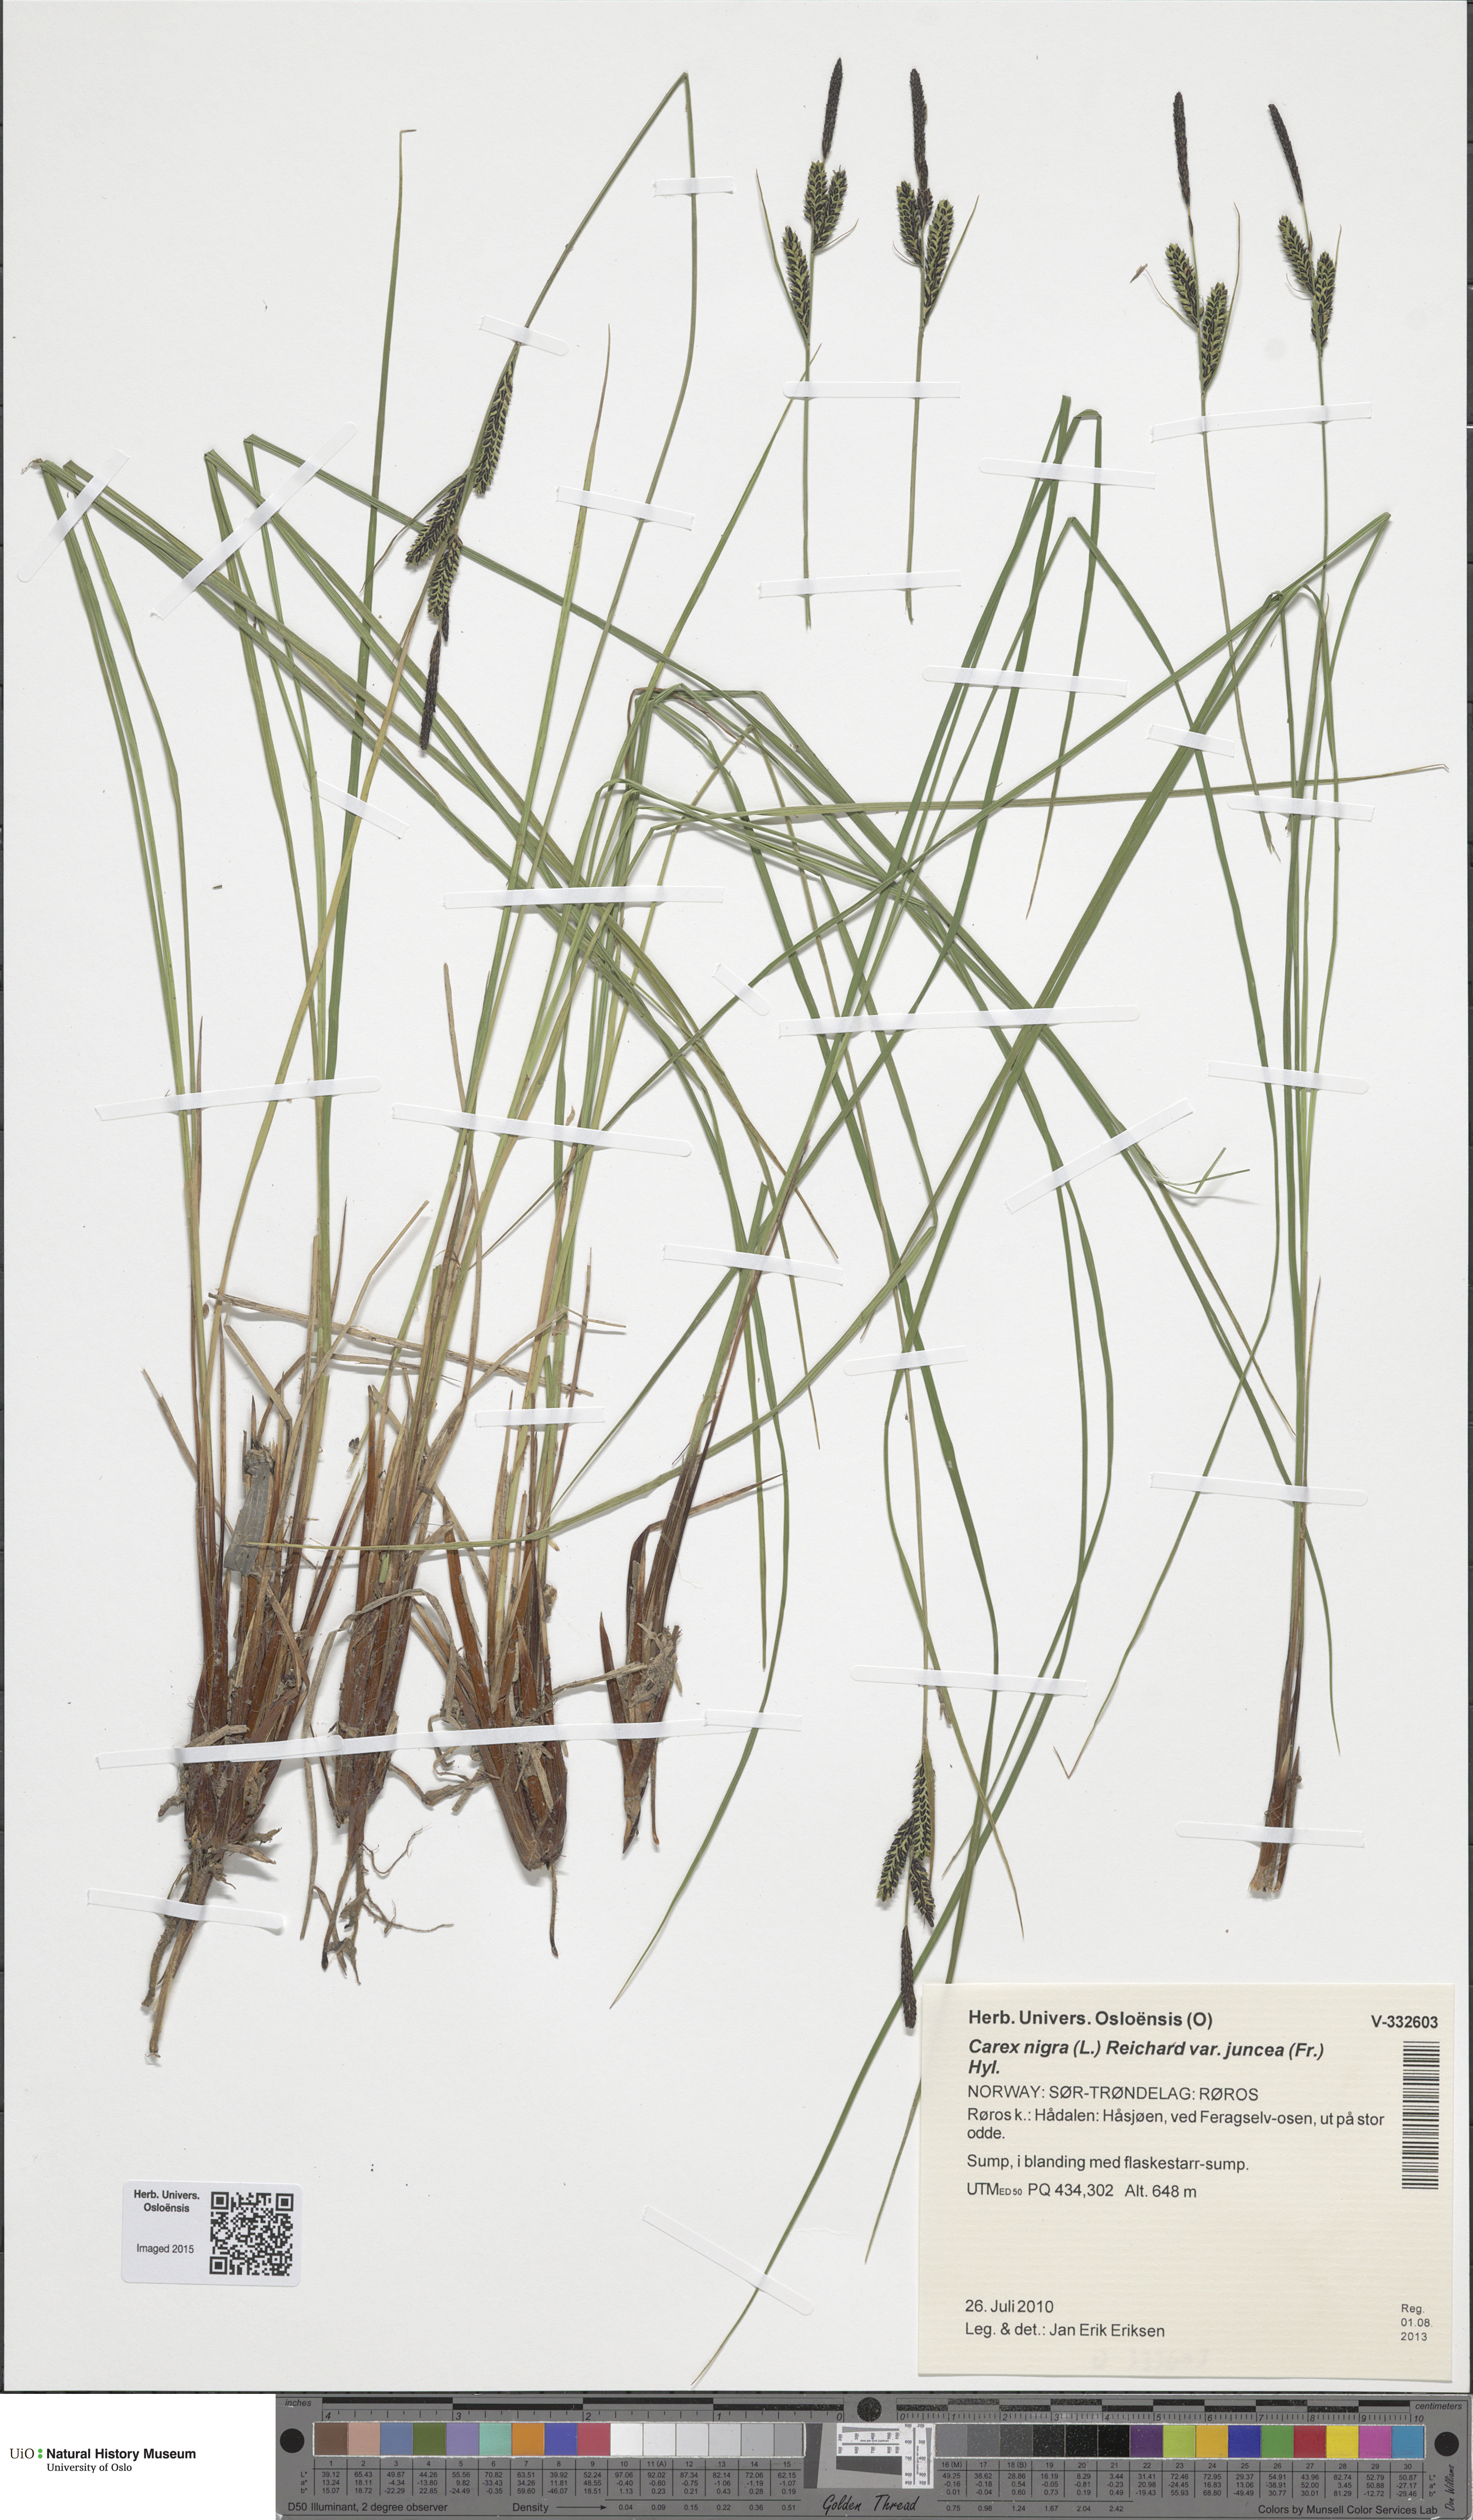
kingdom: Plantae
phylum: Tracheophyta
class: Liliopsida
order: Poales
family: Cyperaceae
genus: Carex
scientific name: Carex nigra
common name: Common sedge
